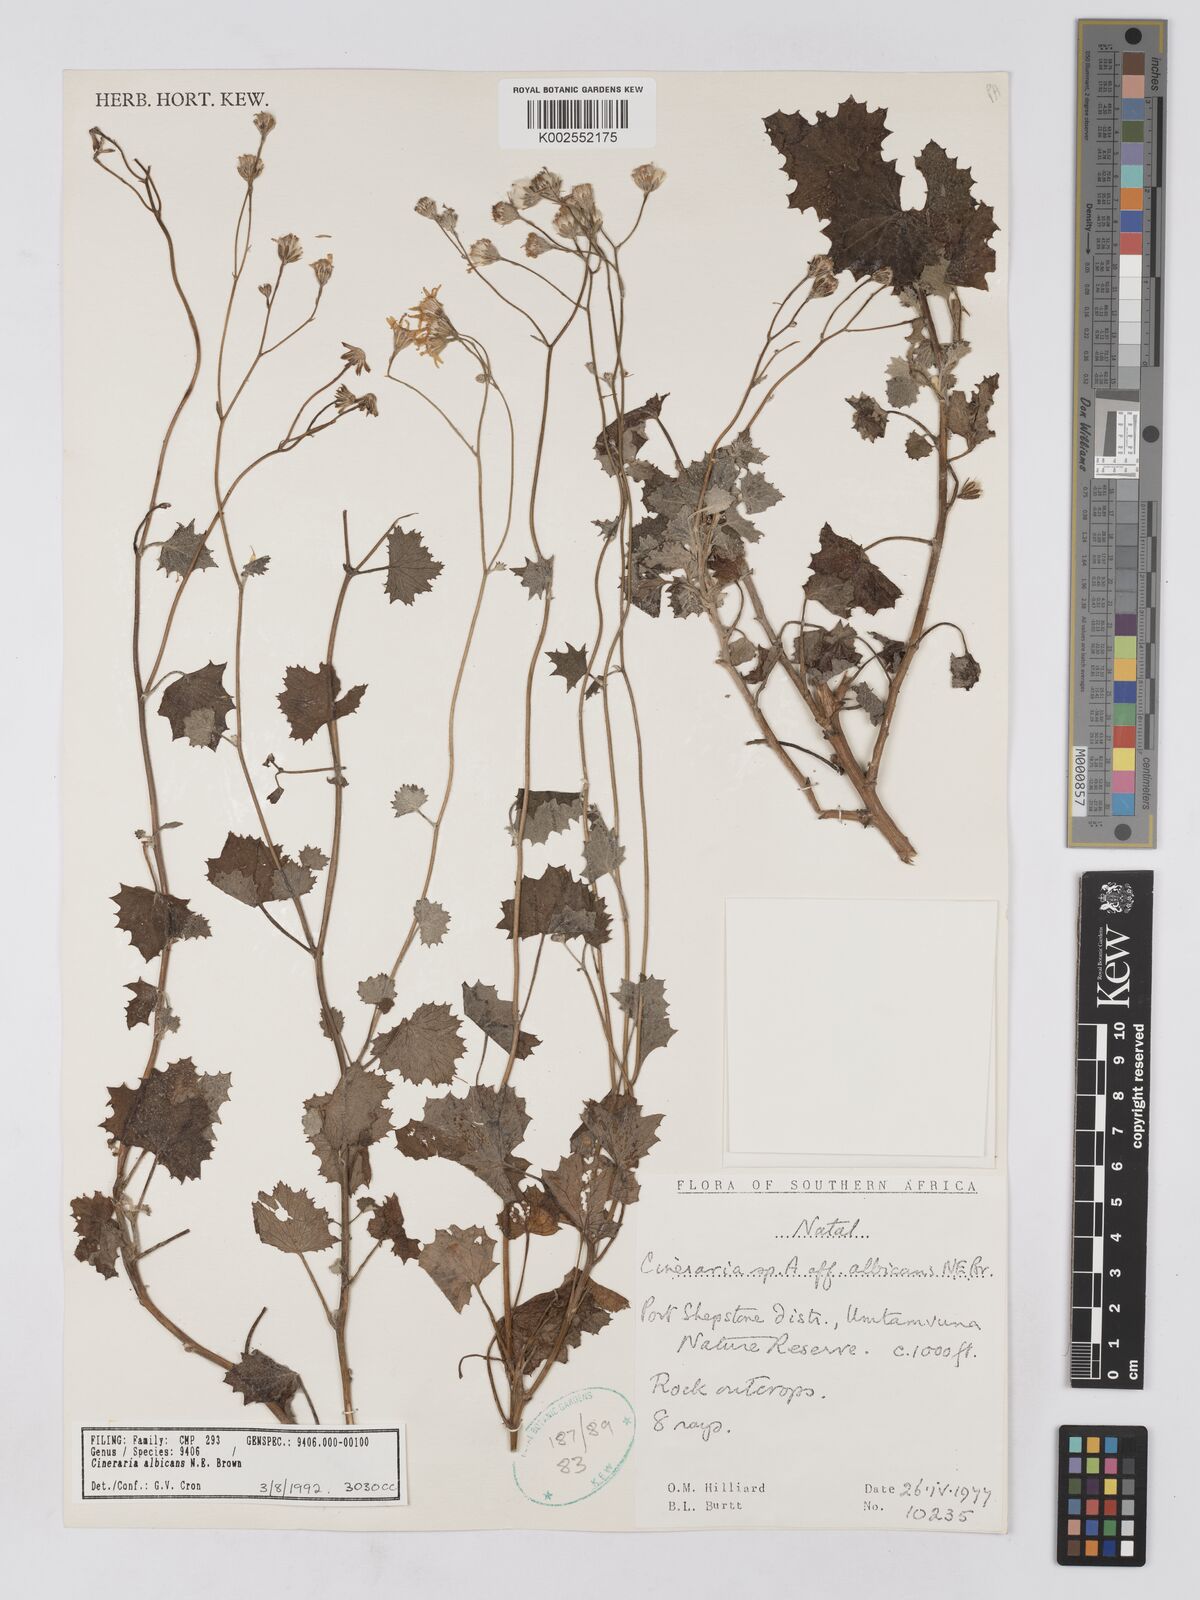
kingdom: Plantae
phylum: Tracheophyta
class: Magnoliopsida
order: Asterales
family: Asteraceae
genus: Cineraria
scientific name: Cineraria albicans
